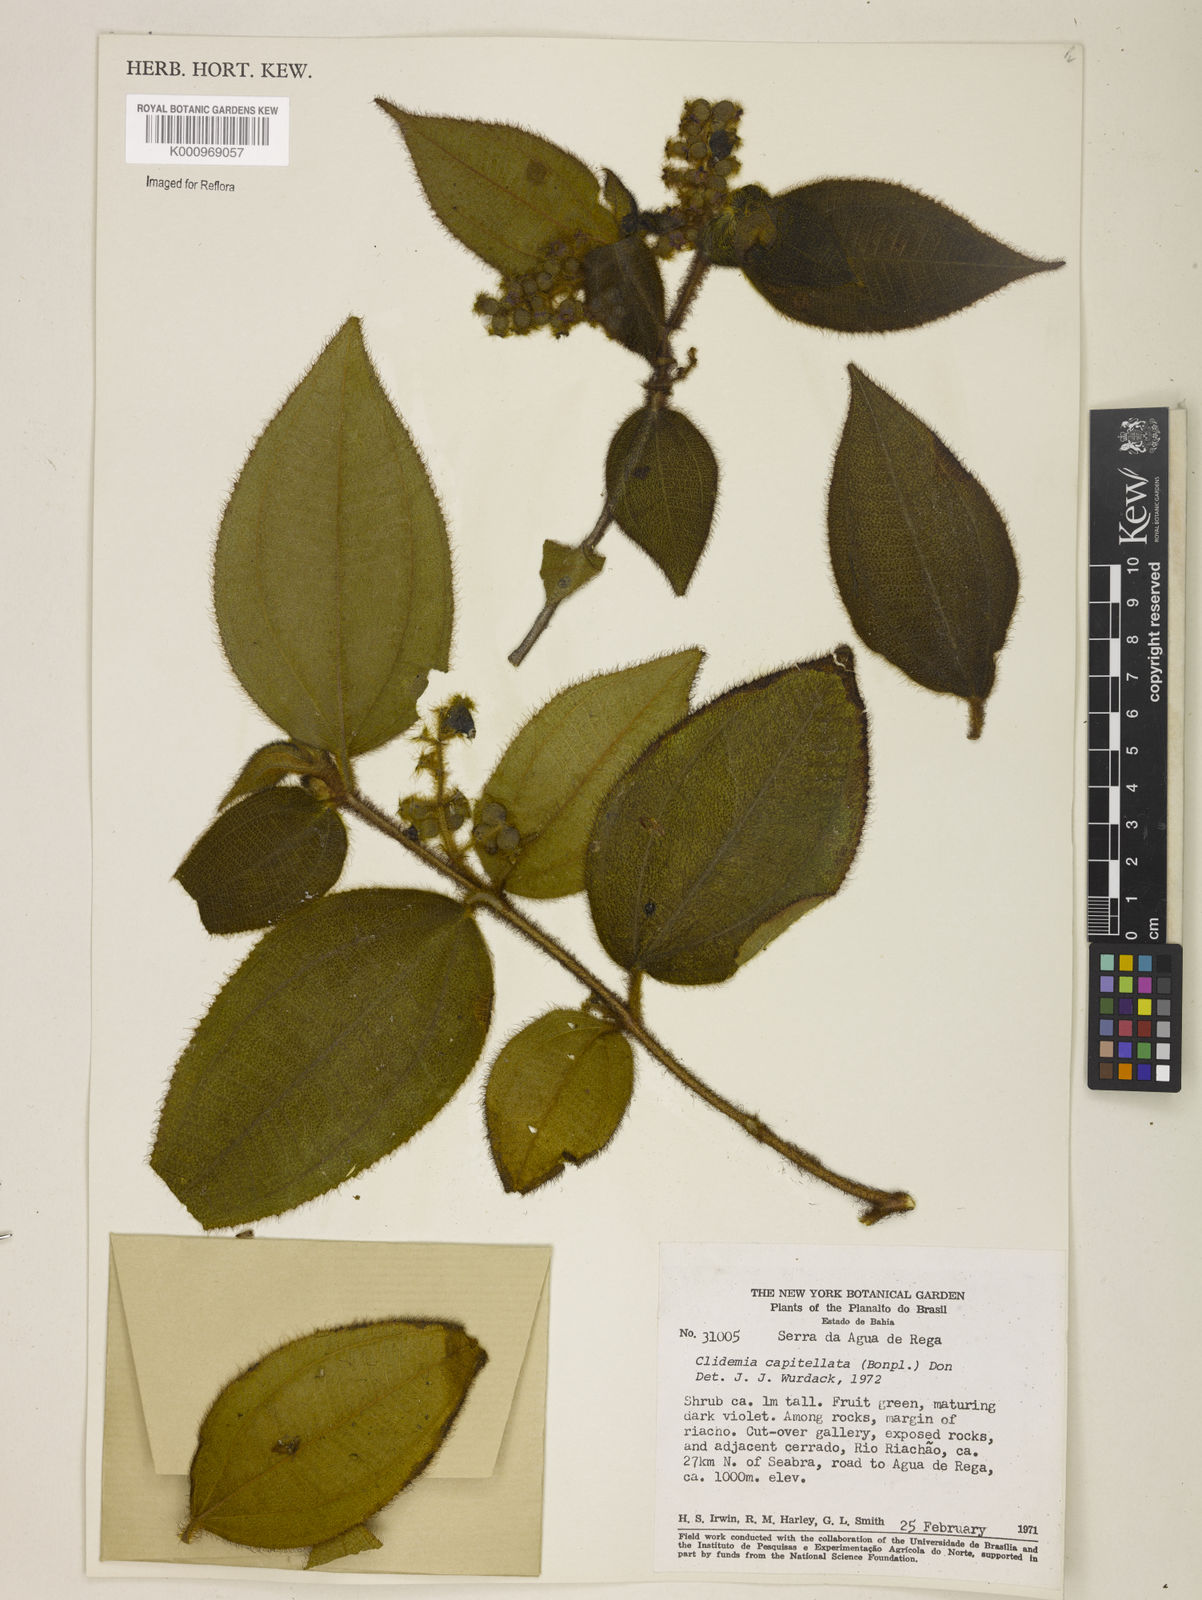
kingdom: Plantae
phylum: Tracheophyta
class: Magnoliopsida
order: Myrtales
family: Melastomataceae
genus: Miconia
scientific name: Miconia dependens
